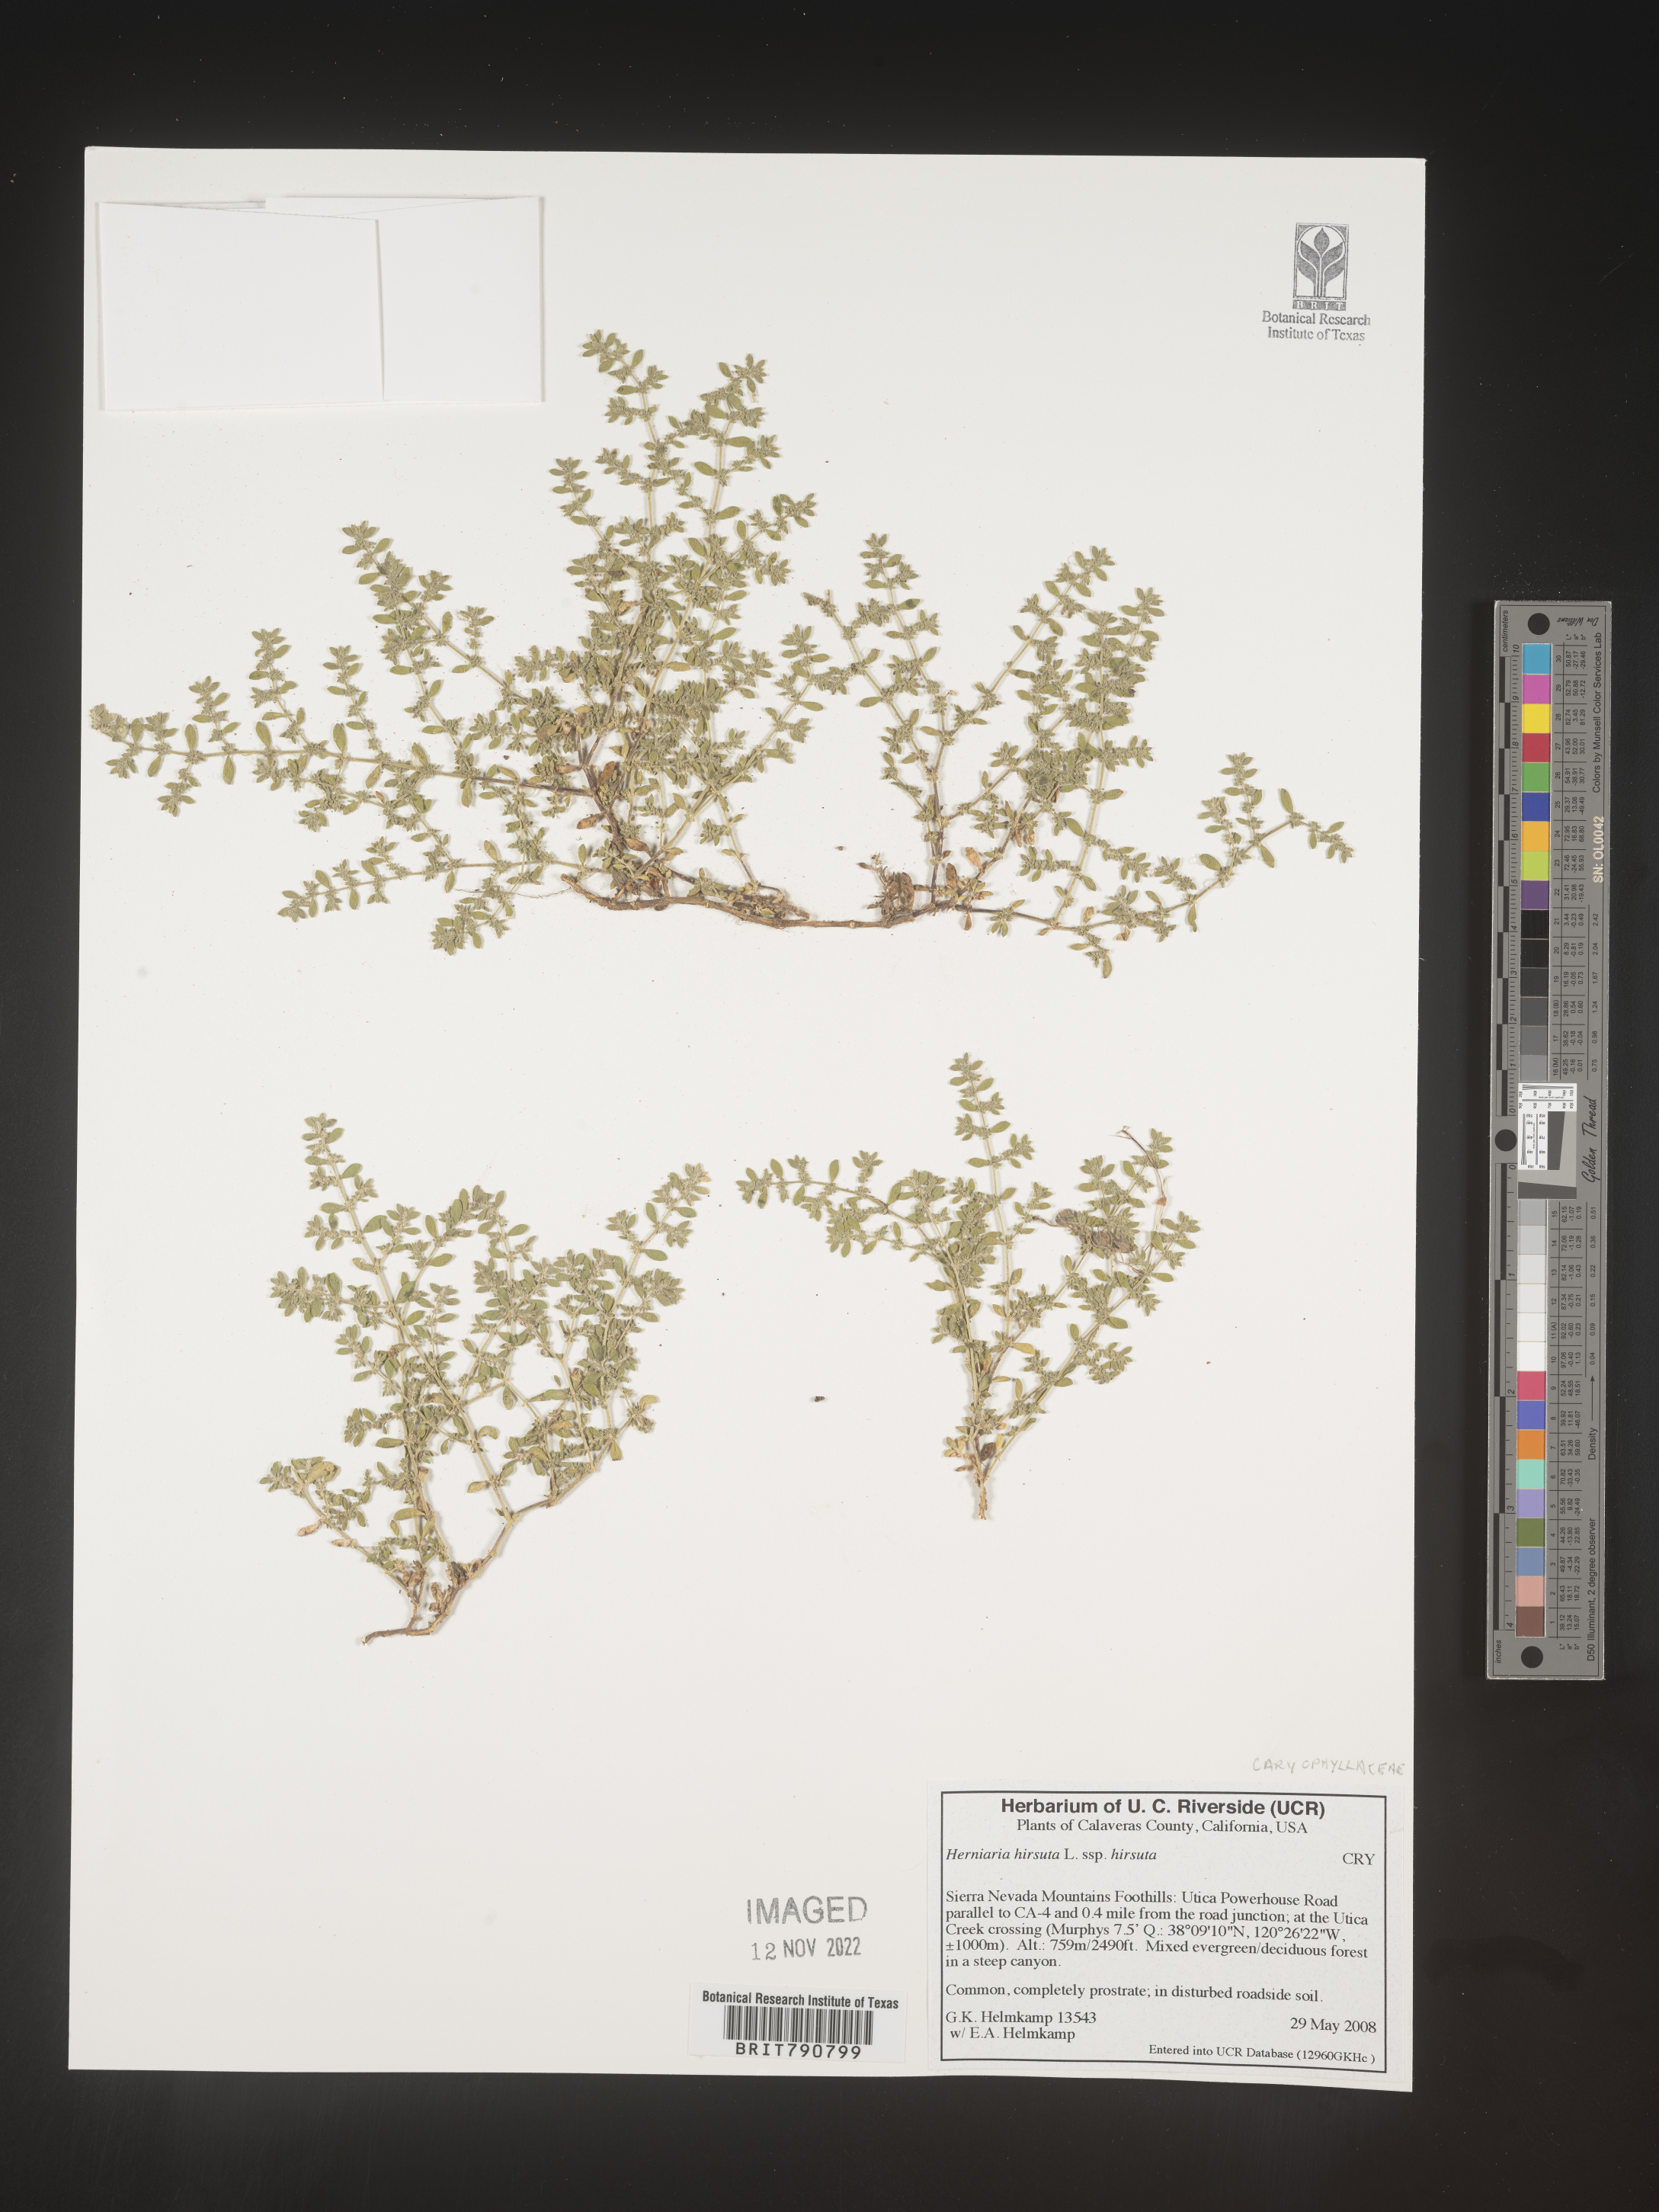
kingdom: Plantae
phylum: Tracheophyta
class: Magnoliopsida
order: Caryophyllales
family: Caryophyllaceae
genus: Herniaria
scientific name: Herniaria
